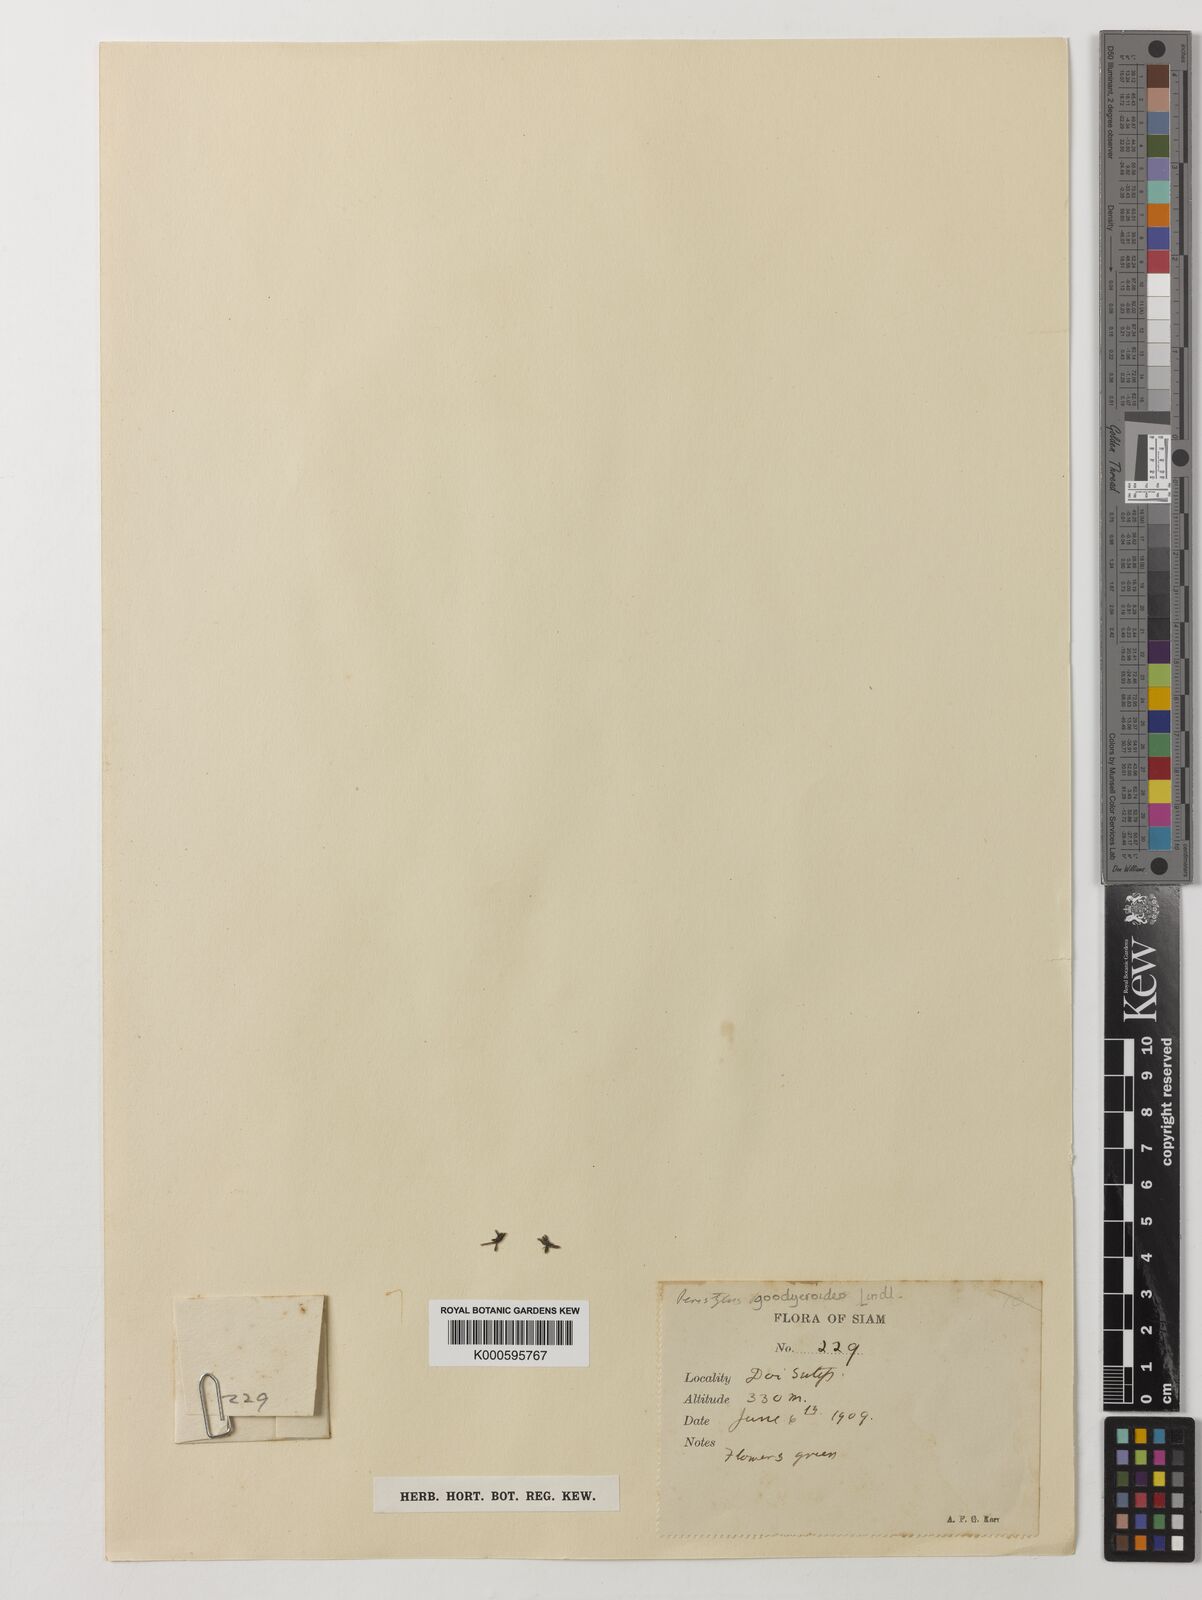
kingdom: Plantae
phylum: Tracheophyta
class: Liliopsida
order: Asparagales
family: Orchidaceae
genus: Peristylus
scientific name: Peristylus goodyeroides
